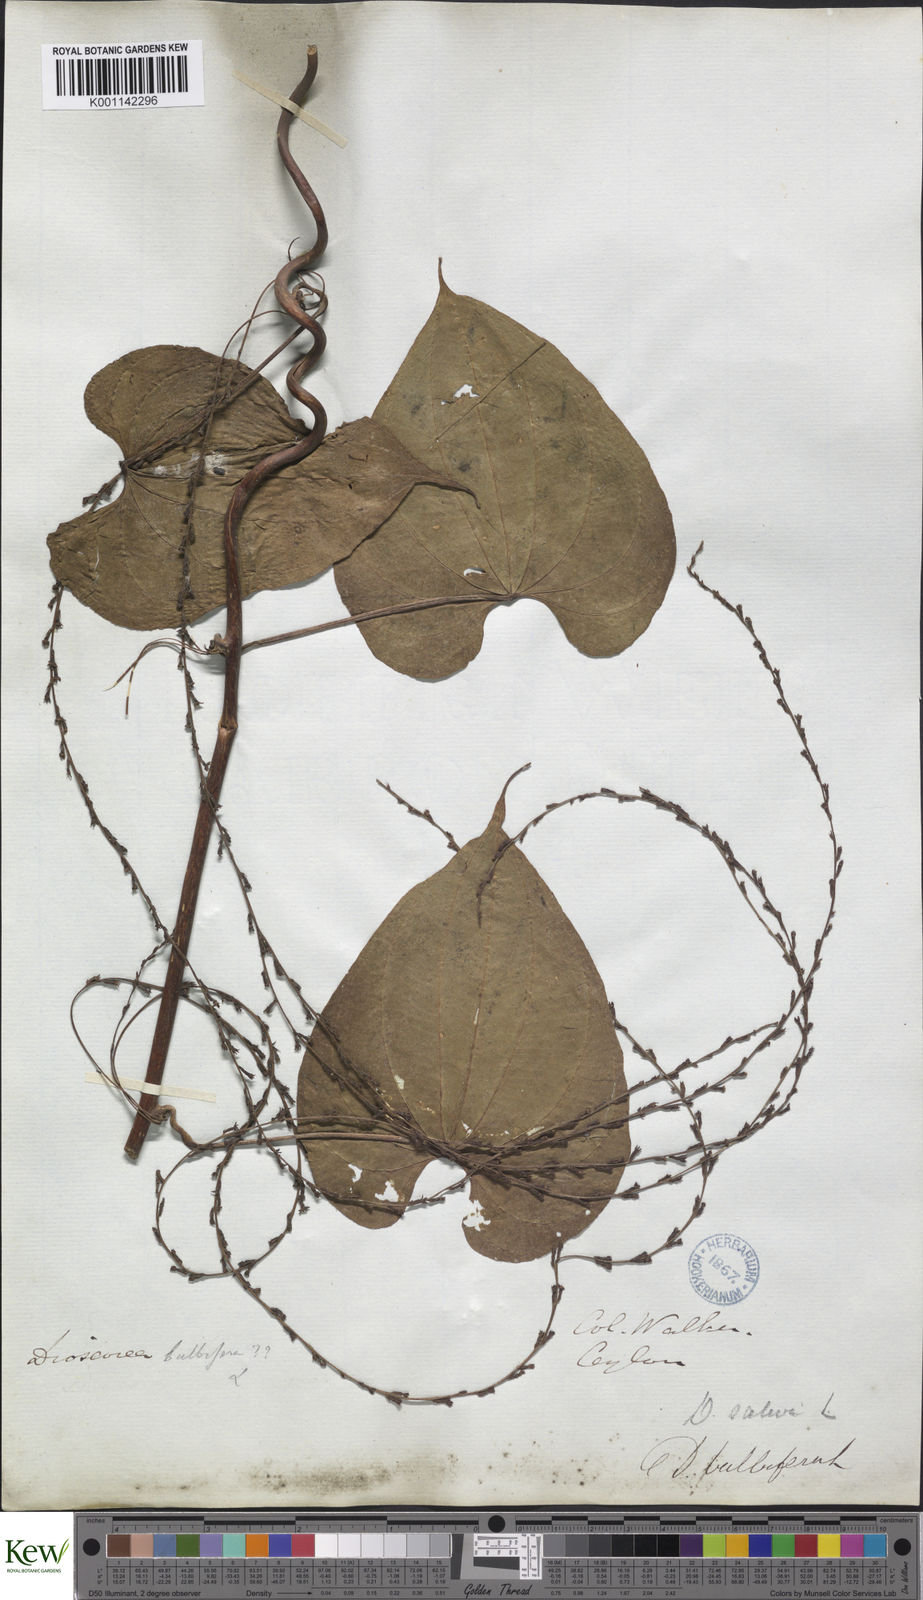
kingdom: Plantae
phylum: Tracheophyta
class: Liliopsida
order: Dioscoreales
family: Dioscoreaceae
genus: Dioscorea
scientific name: Dioscorea bulbifera
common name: Air yam
